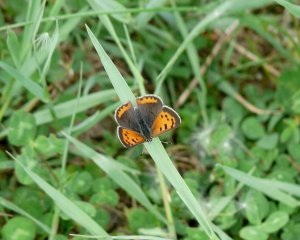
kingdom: Animalia
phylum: Arthropoda
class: Insecta
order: Lepidoptera
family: Lycaenidae
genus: Lycaena
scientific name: Lycaena phlaeas
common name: American Copper
